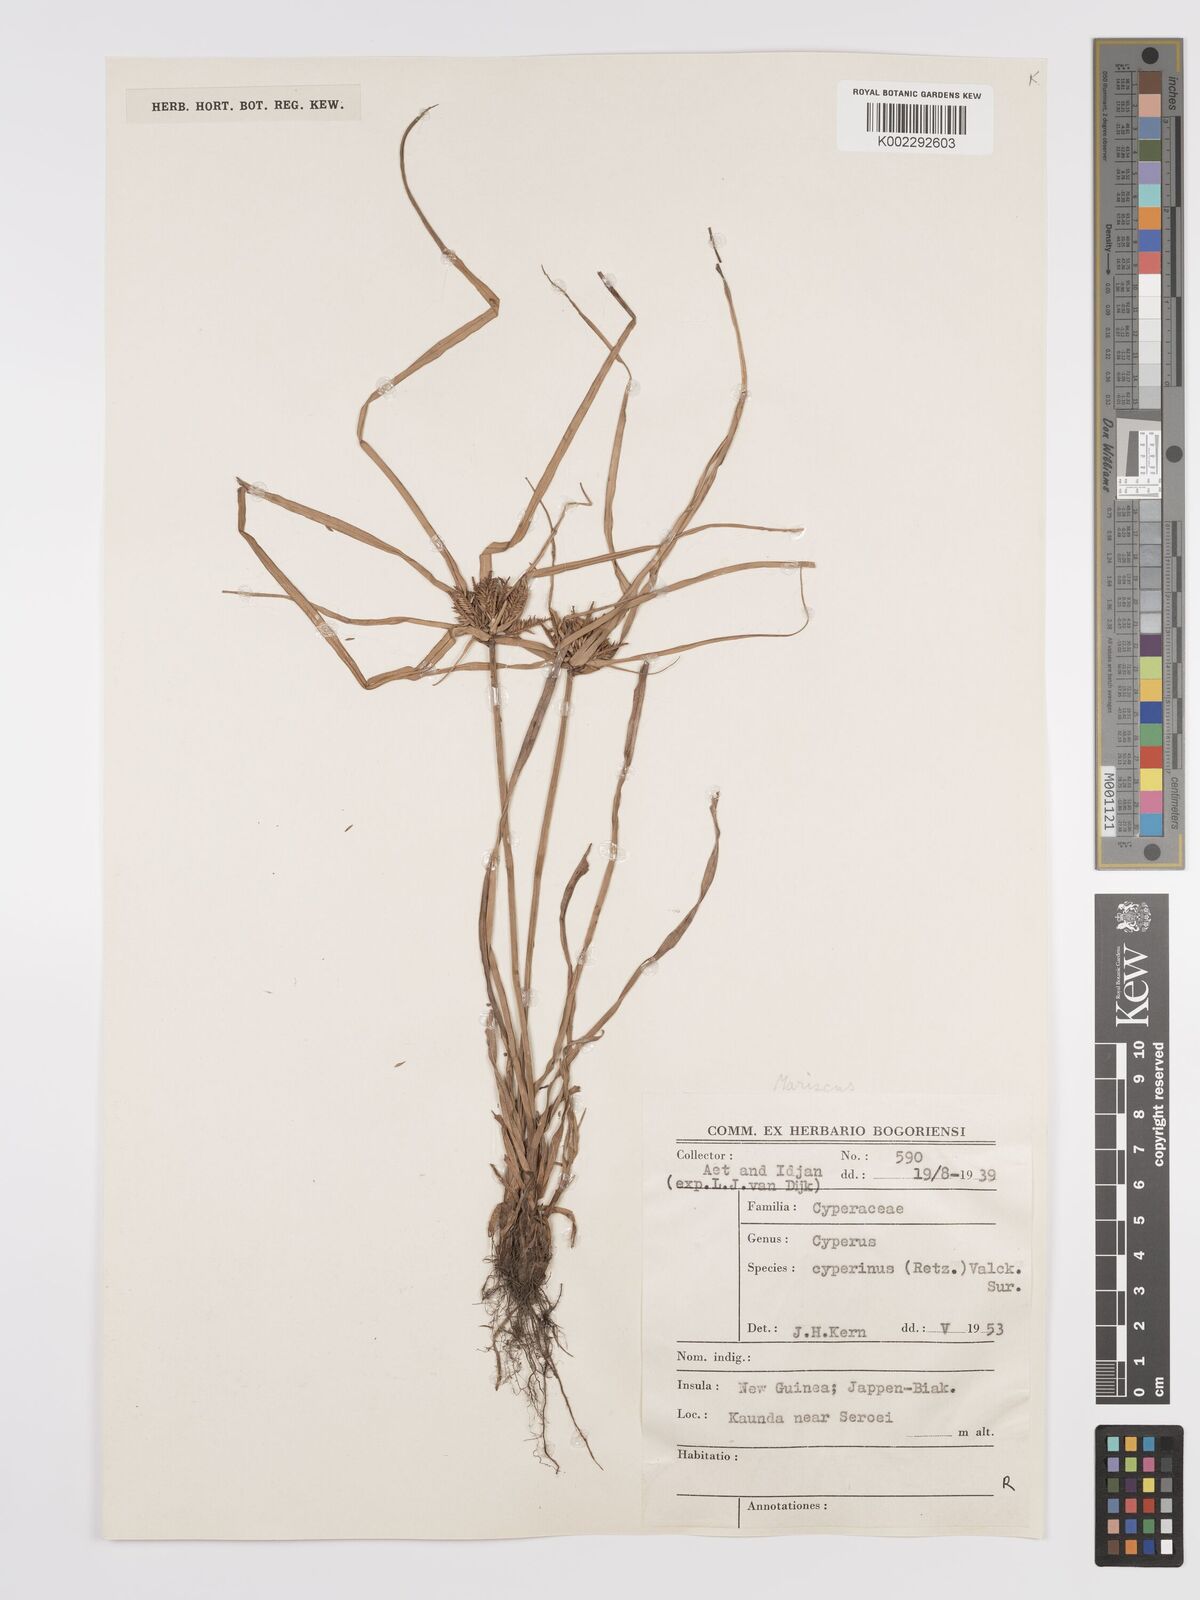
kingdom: Plantae
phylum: Tracheophyta
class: Liliopsida
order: Poales
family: Cyperaceae
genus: Cyperus
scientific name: Cyperus cyperinus
